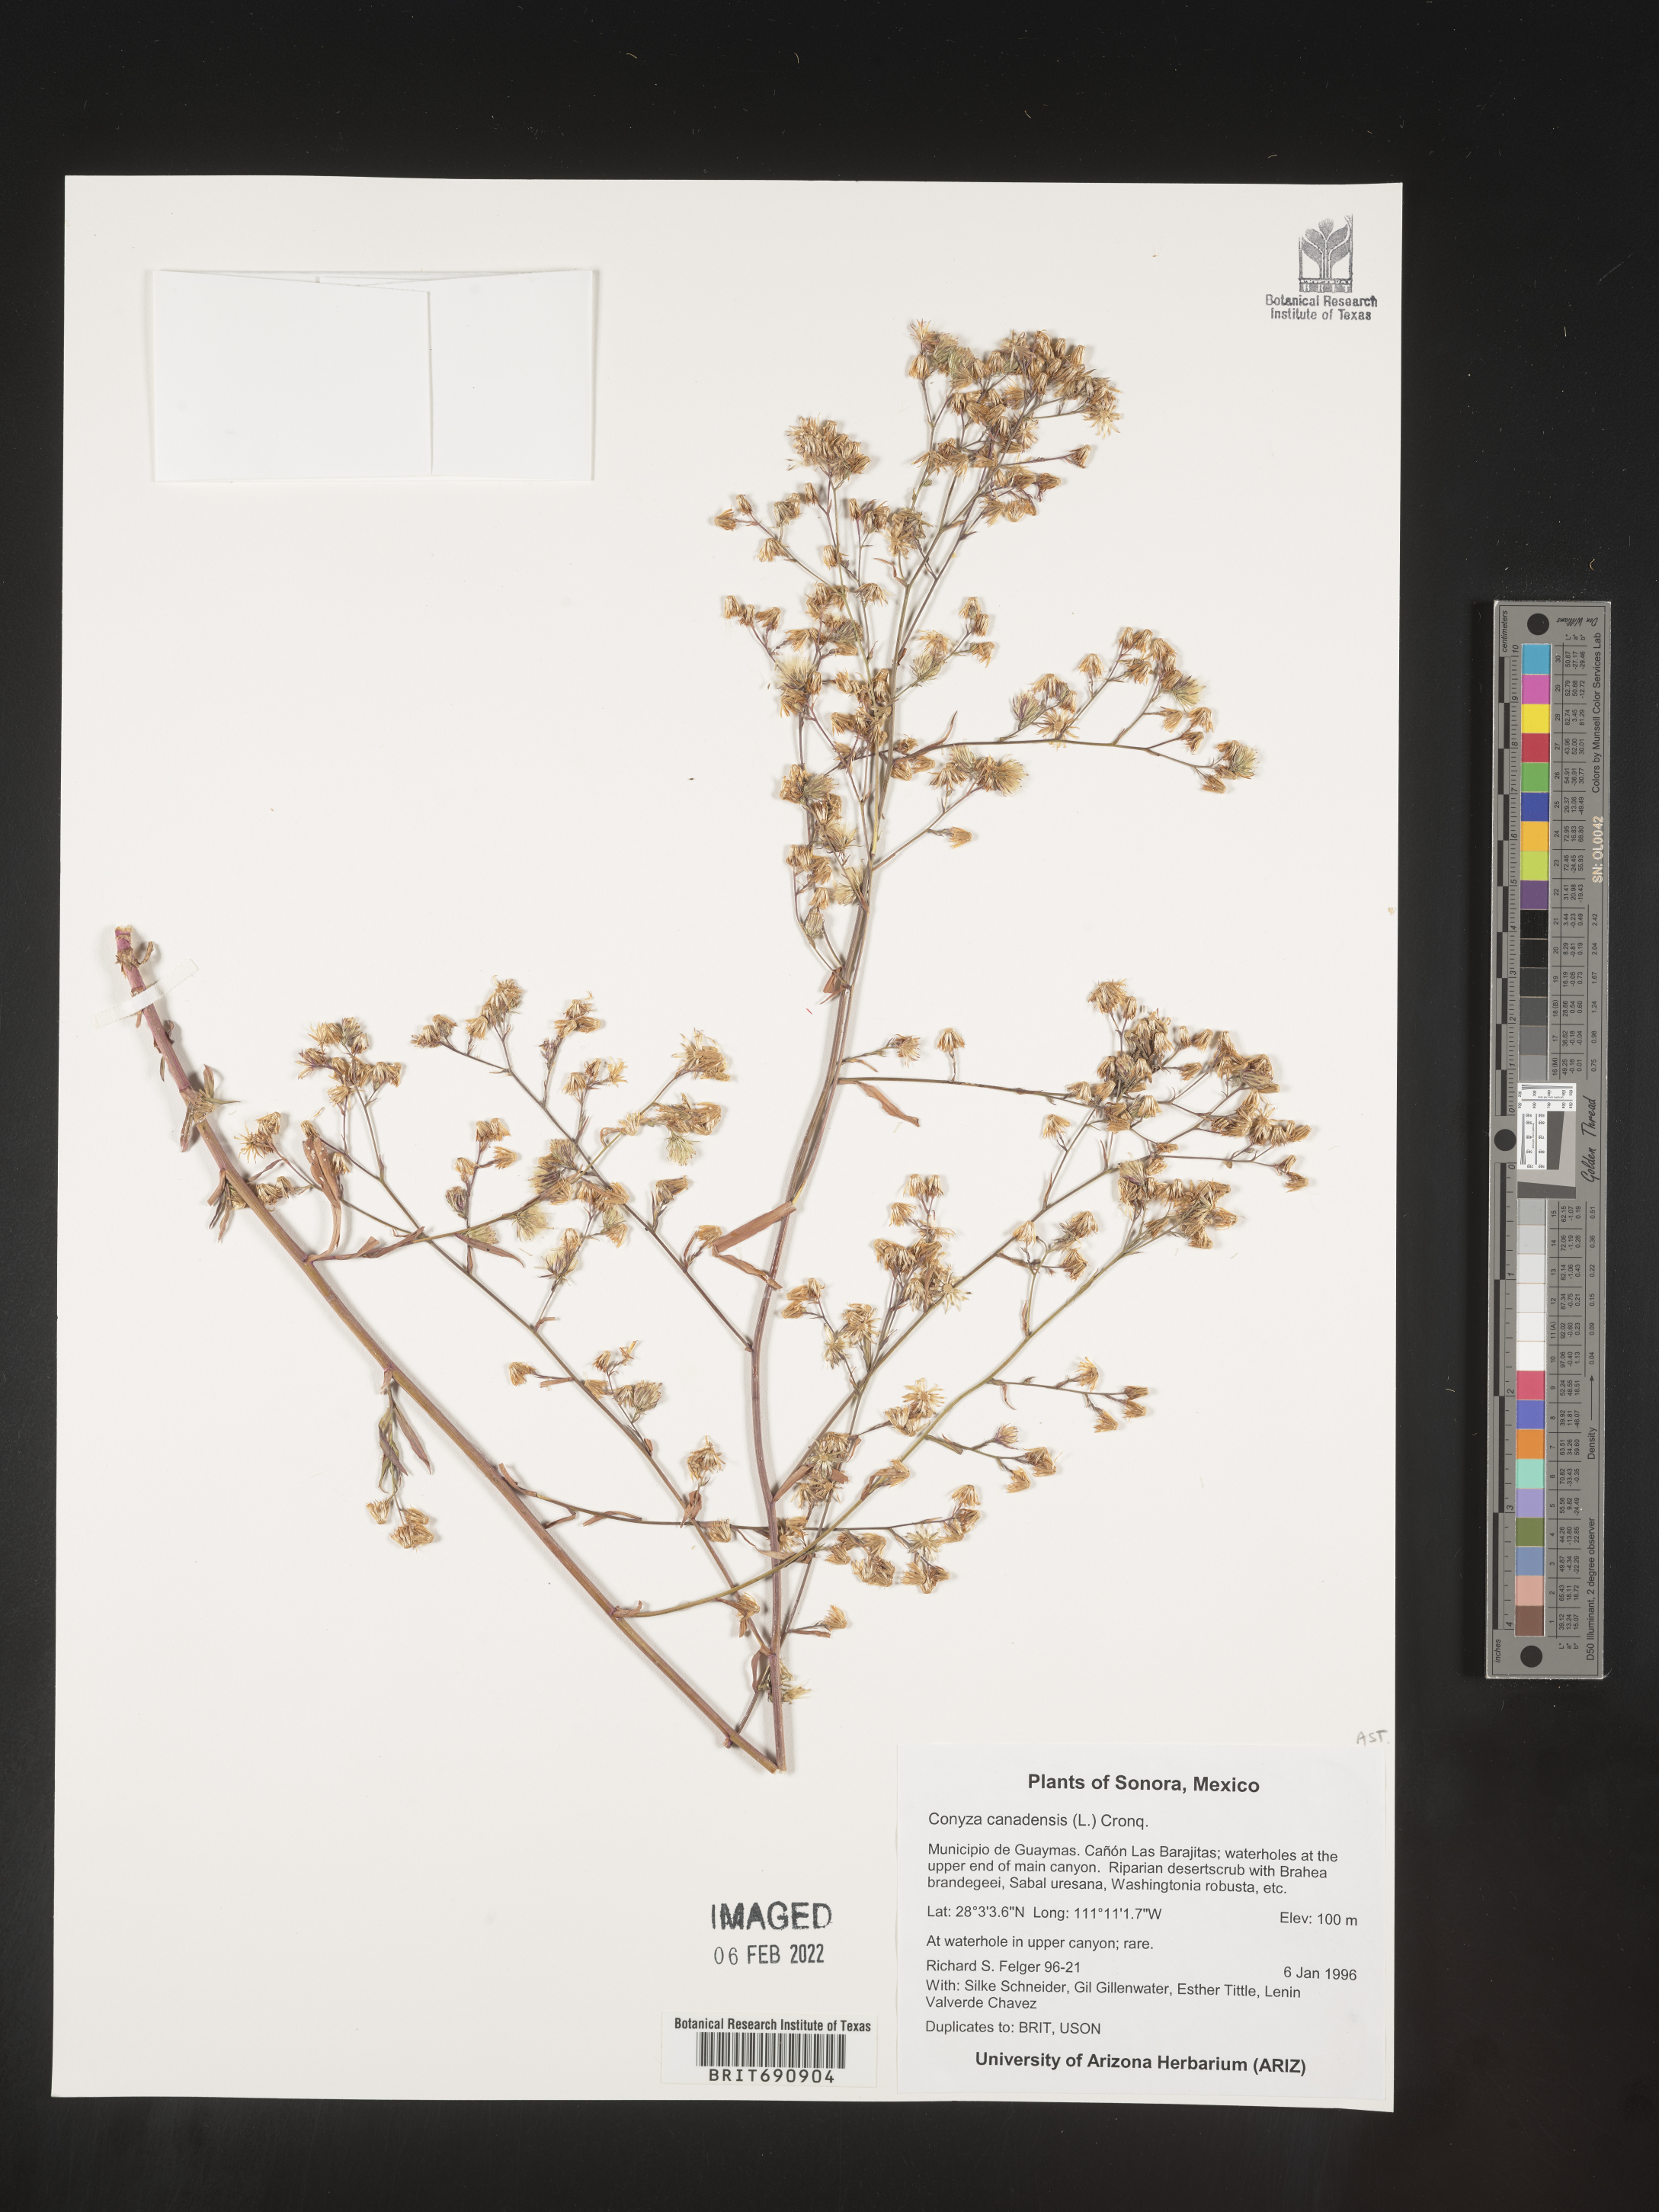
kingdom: Plantae
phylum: Tracheophyta
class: Magnoliopsida
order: Asterales
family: Asteraceae
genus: Erigeron
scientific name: Erigeron canadensis
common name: Canadian fleabane
